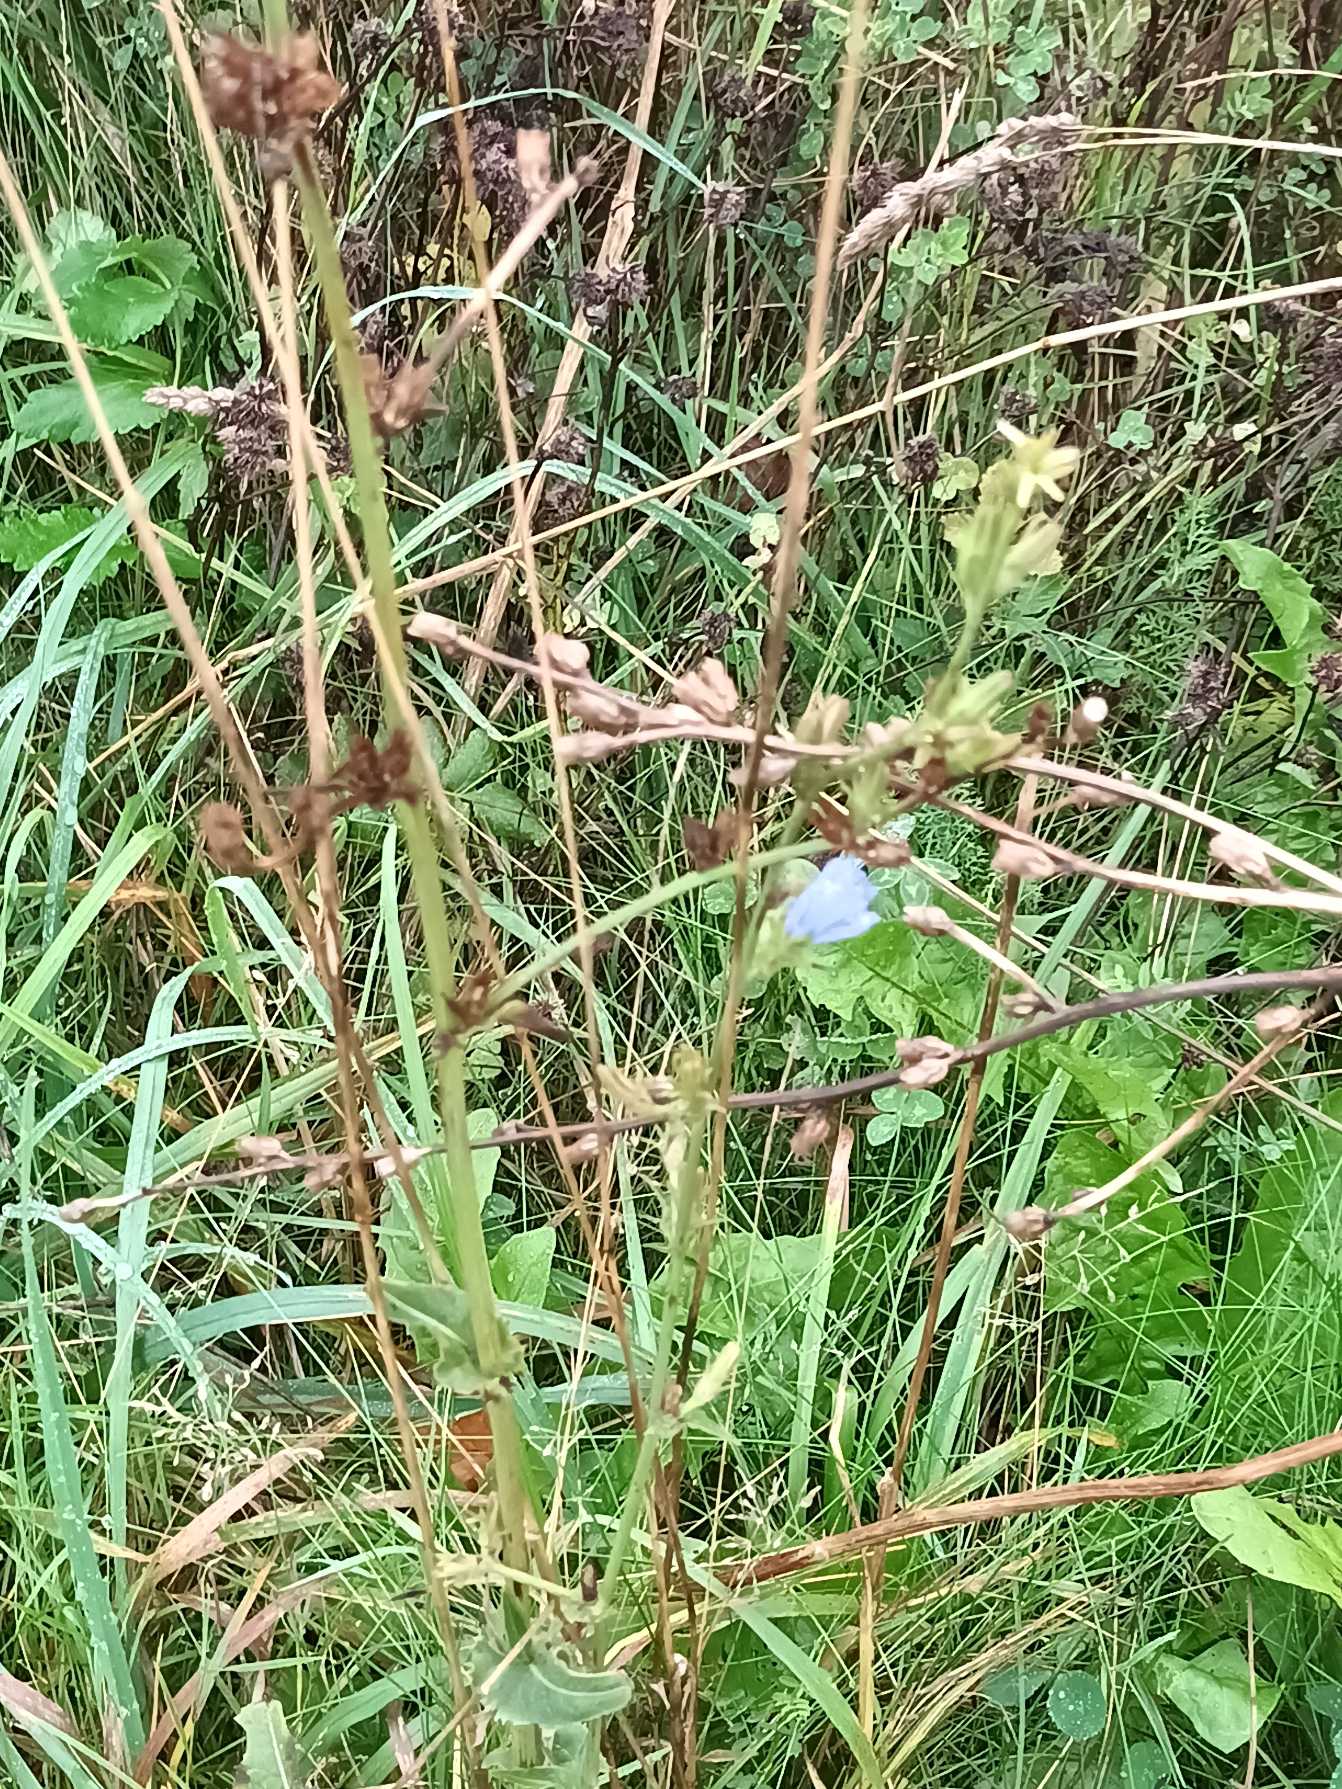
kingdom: Plantae
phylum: Tracheophyta
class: Magnoliopsida
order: Asterales
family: Asteraceae
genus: Cichorium
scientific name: Cichorium intybus
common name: Cikorie
